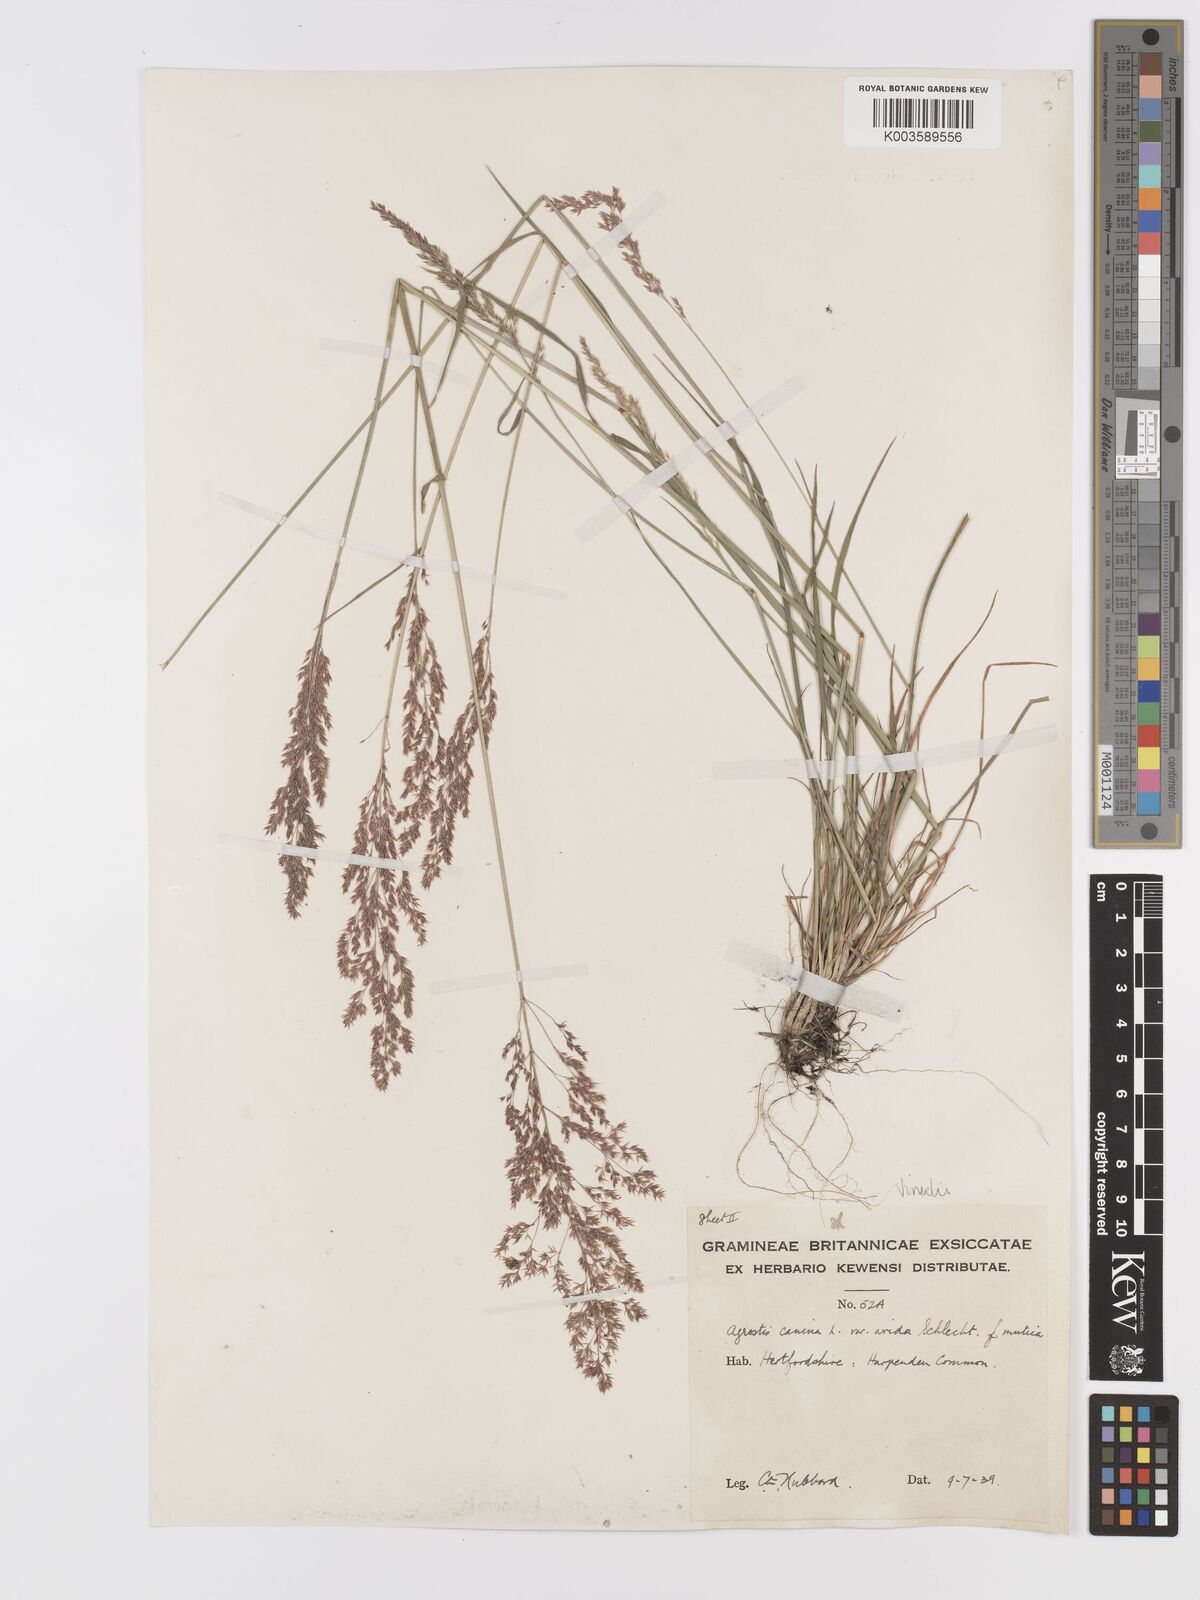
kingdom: Plantae
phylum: Tracheophyta
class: Liliopsida
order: Poales
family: Poaceae
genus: Agrostis
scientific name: Agrostis
